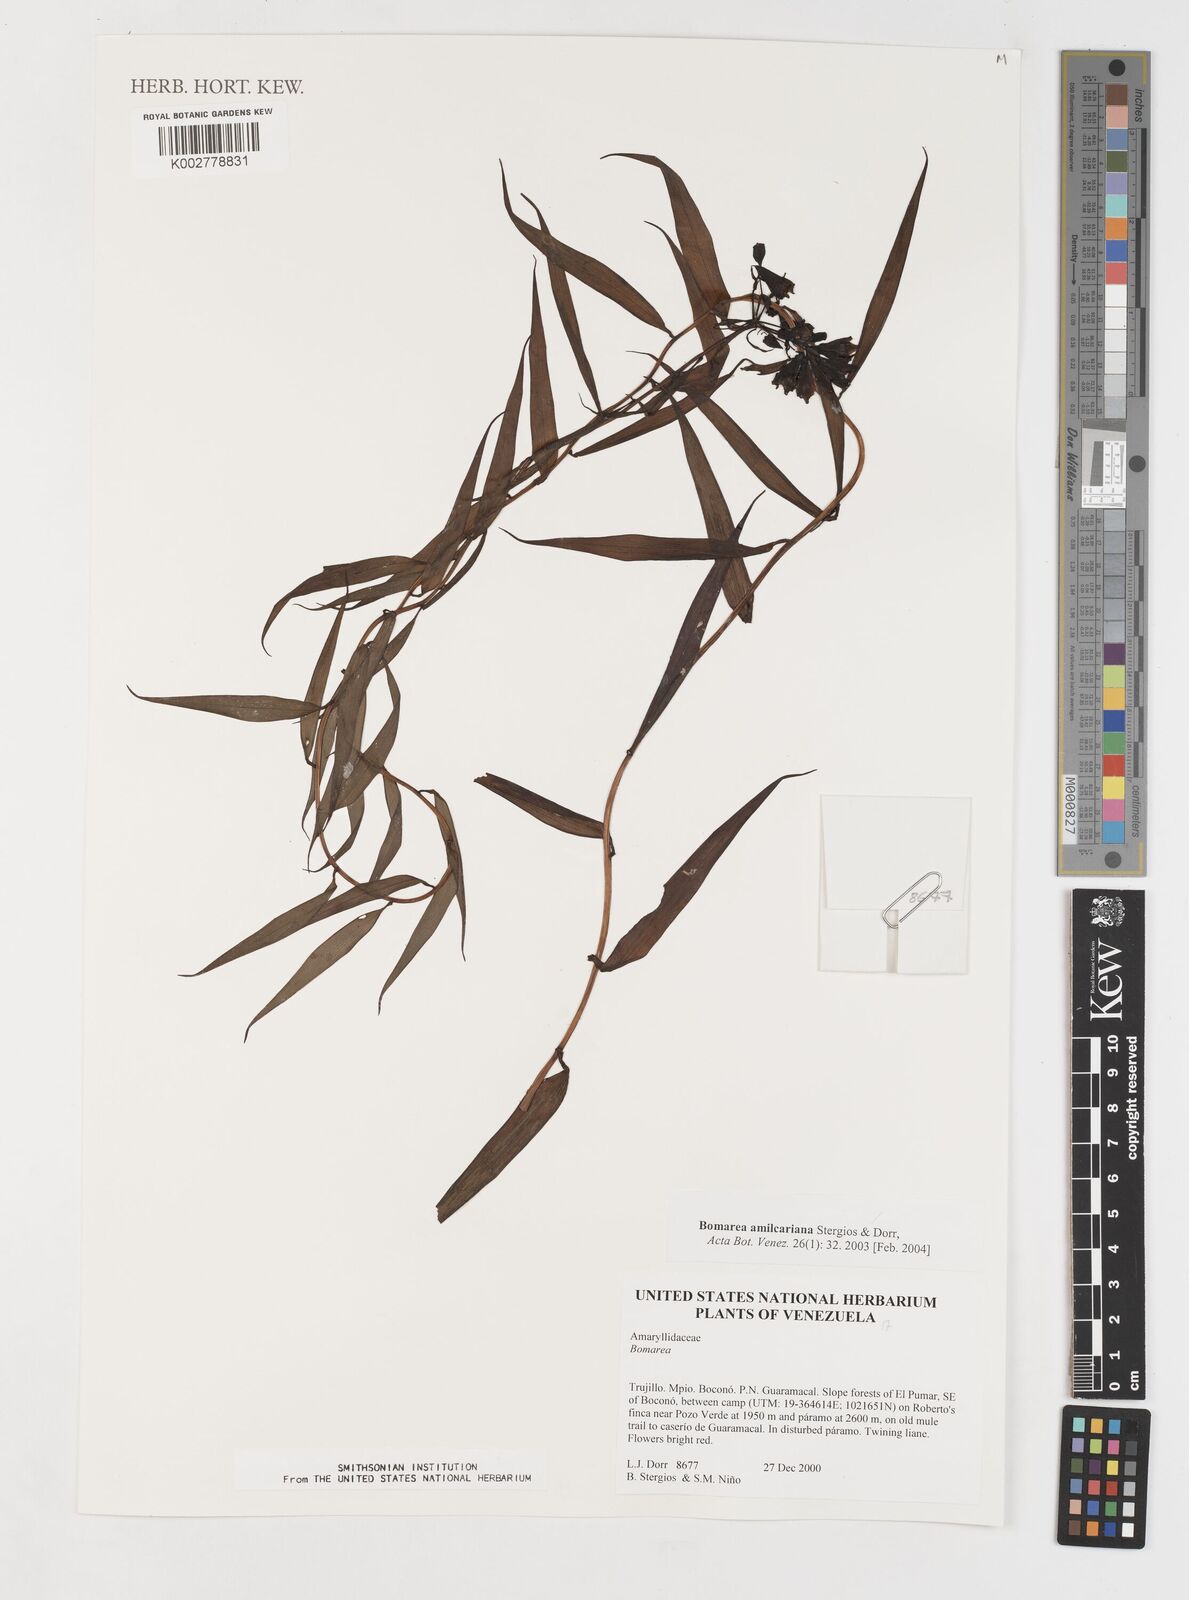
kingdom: Plantae
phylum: Tracheophyta
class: Liliopsida
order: Liliales
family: Alstroemeriaceae
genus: Bomarea
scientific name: Bomarea amilcariana
